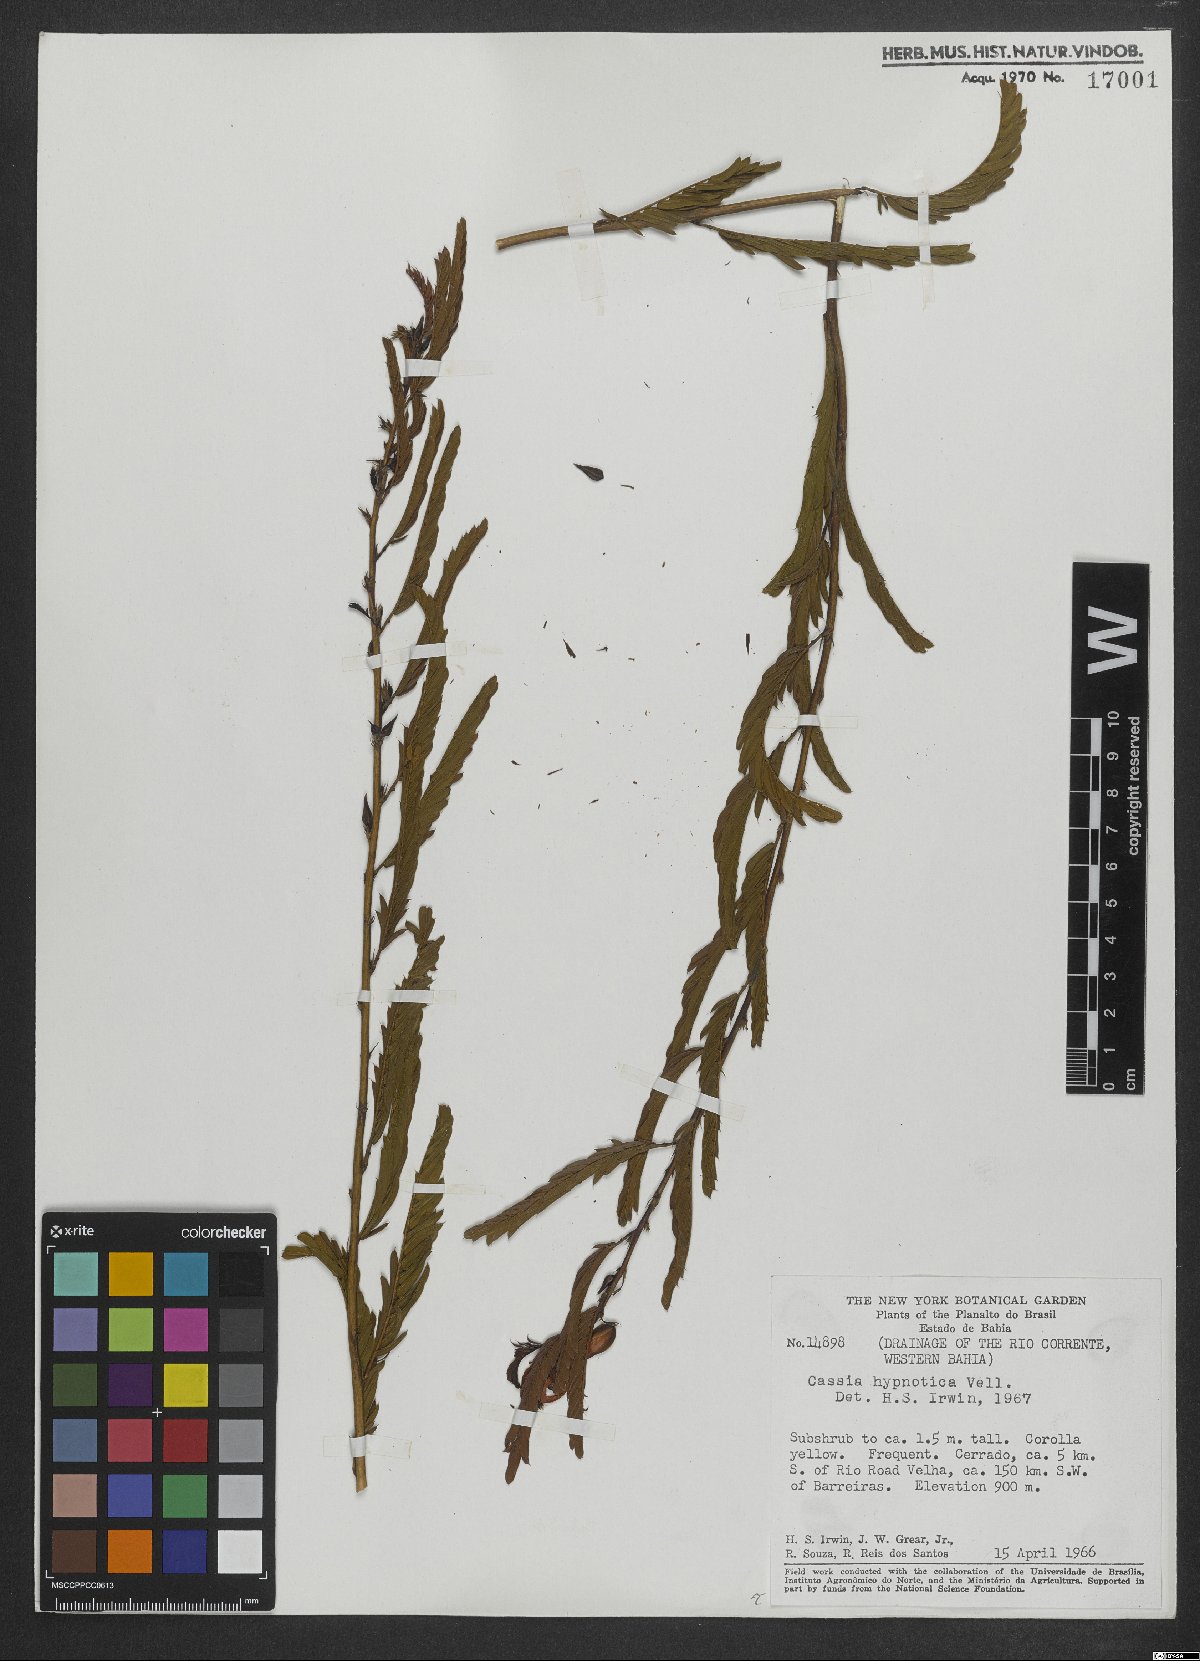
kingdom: Plantae
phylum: Tracheophyta
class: Magnoliopsida
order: Fabales
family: Fabaceae
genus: Chamaecrista
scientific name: Chamaecrista nictitans
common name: Sensitive cassia
